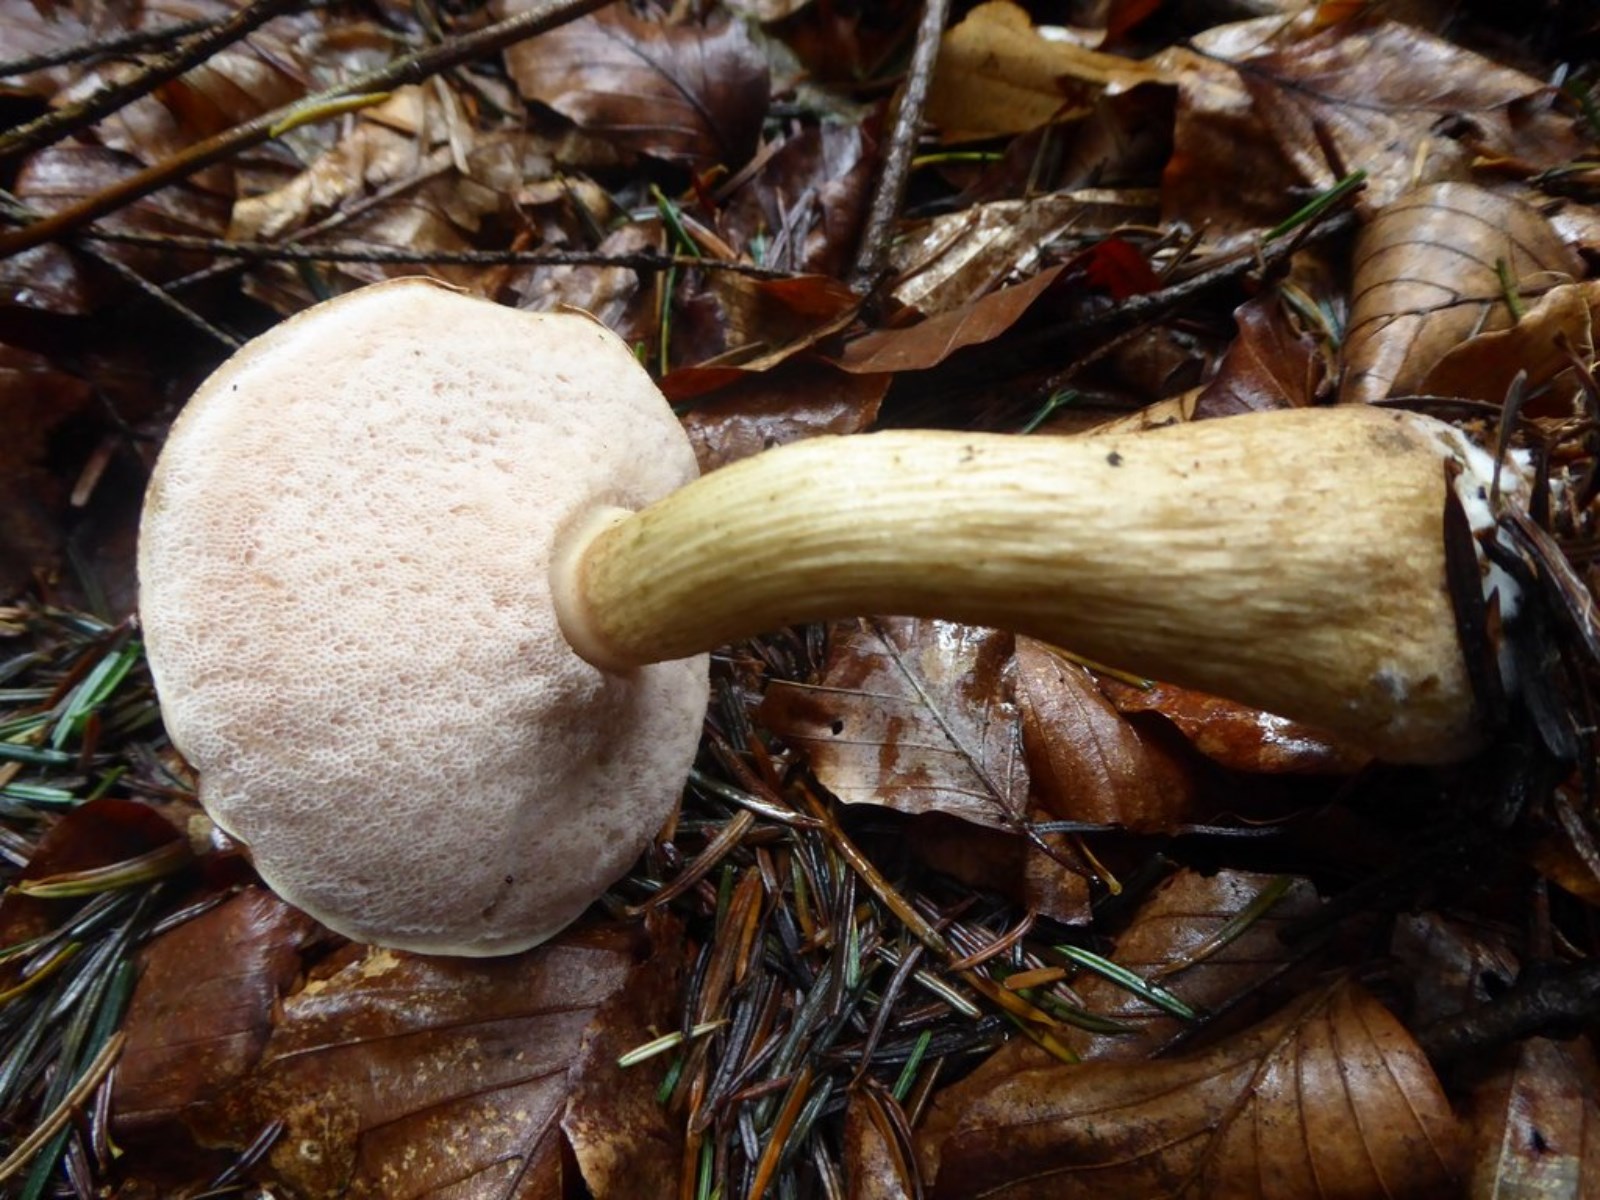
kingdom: Fungi
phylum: Basidiomycota
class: Agaricomycetes
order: Boletales
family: Boletaceae
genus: Tylopilus
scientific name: Tylopilus felleus
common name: galderørhat
